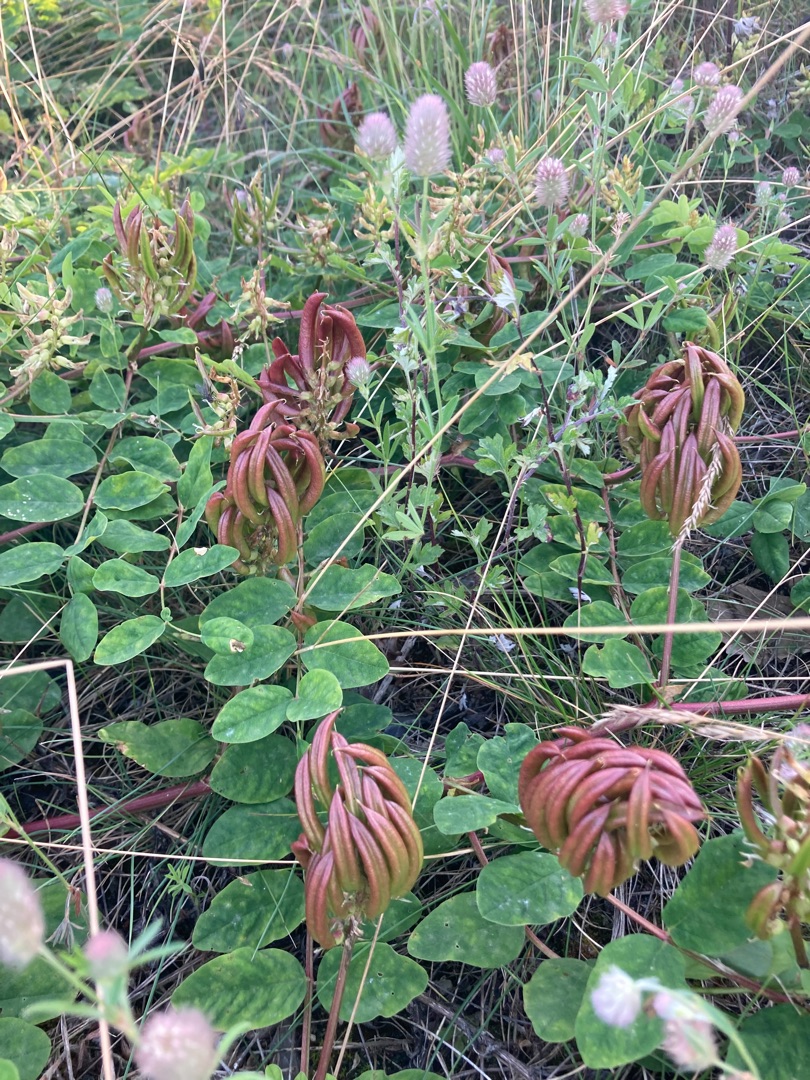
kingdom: Plantae
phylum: Tracheophyta
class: Magnoliopsida
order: Fabales
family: Fabaceae
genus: Astragalus
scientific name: Astragalus glycyphyllos
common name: Sød astragel
